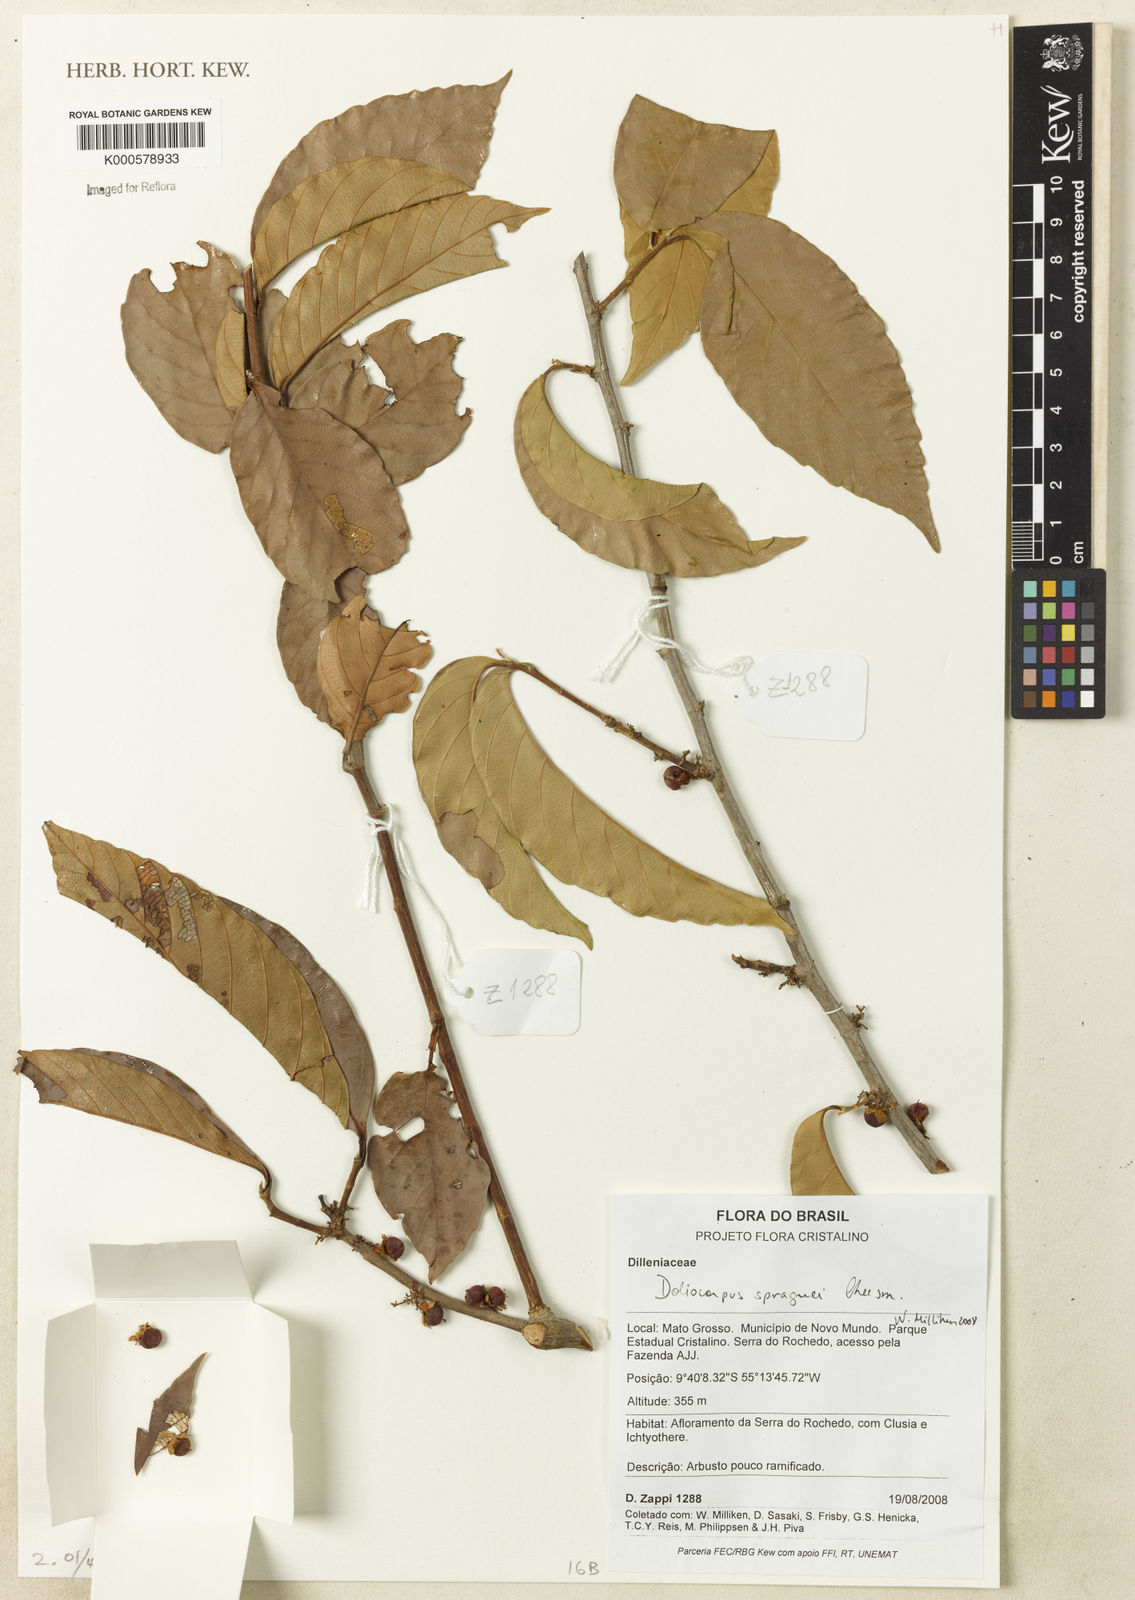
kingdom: Plantae
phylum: Tracheophyta
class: Magnoliopsida
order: Dilleniales
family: Dilleniaceae
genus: Doliocarpus
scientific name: Doliocarpus spraguei
